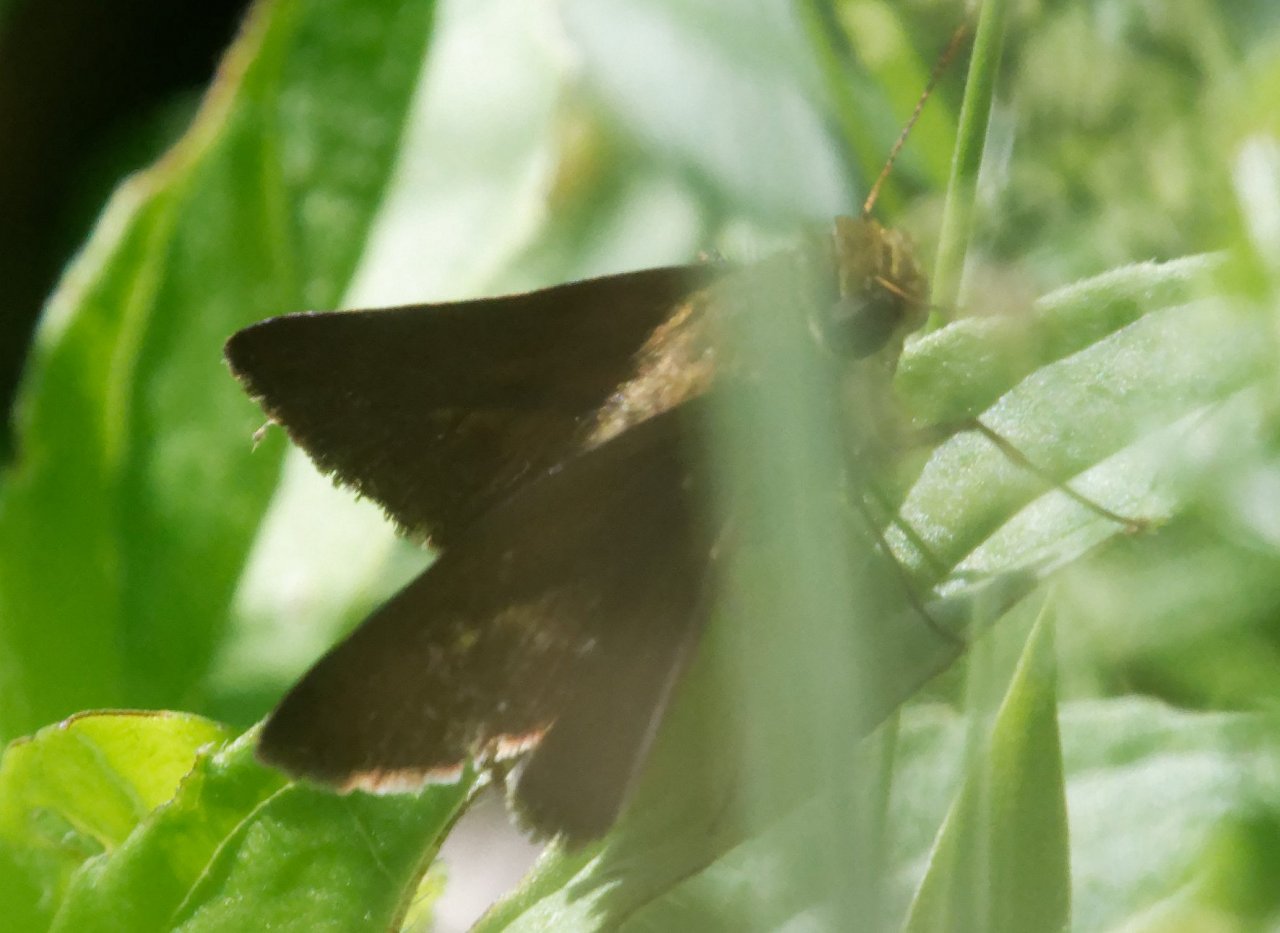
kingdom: Animalia
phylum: Arthropoda
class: Insecta
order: Lepidoptera
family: Hesperiidae
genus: Euphyes
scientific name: Euphyes vestris
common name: Dun Skipper
